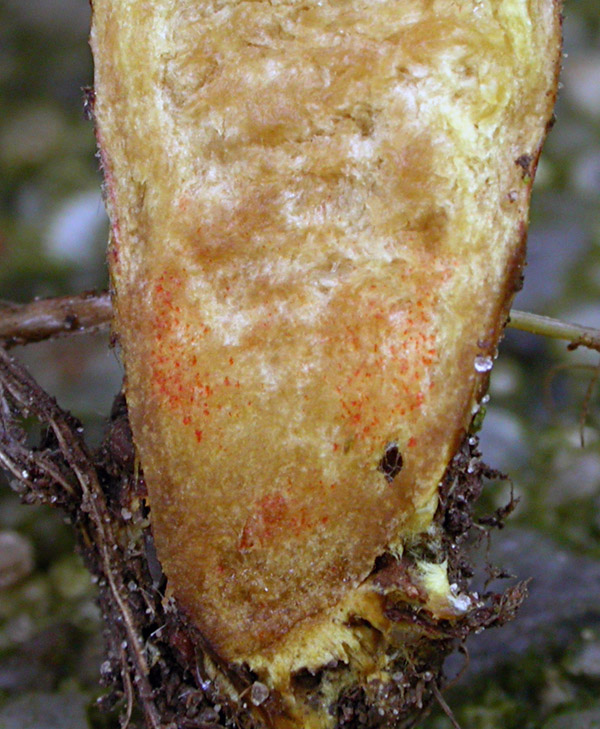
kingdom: Fungi
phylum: Basidiomycota
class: Agaricomycetes
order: Boletales
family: Boletaceae
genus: Hortiboletus
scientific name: Hortiboletus rubellus
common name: blodrød rørhat
